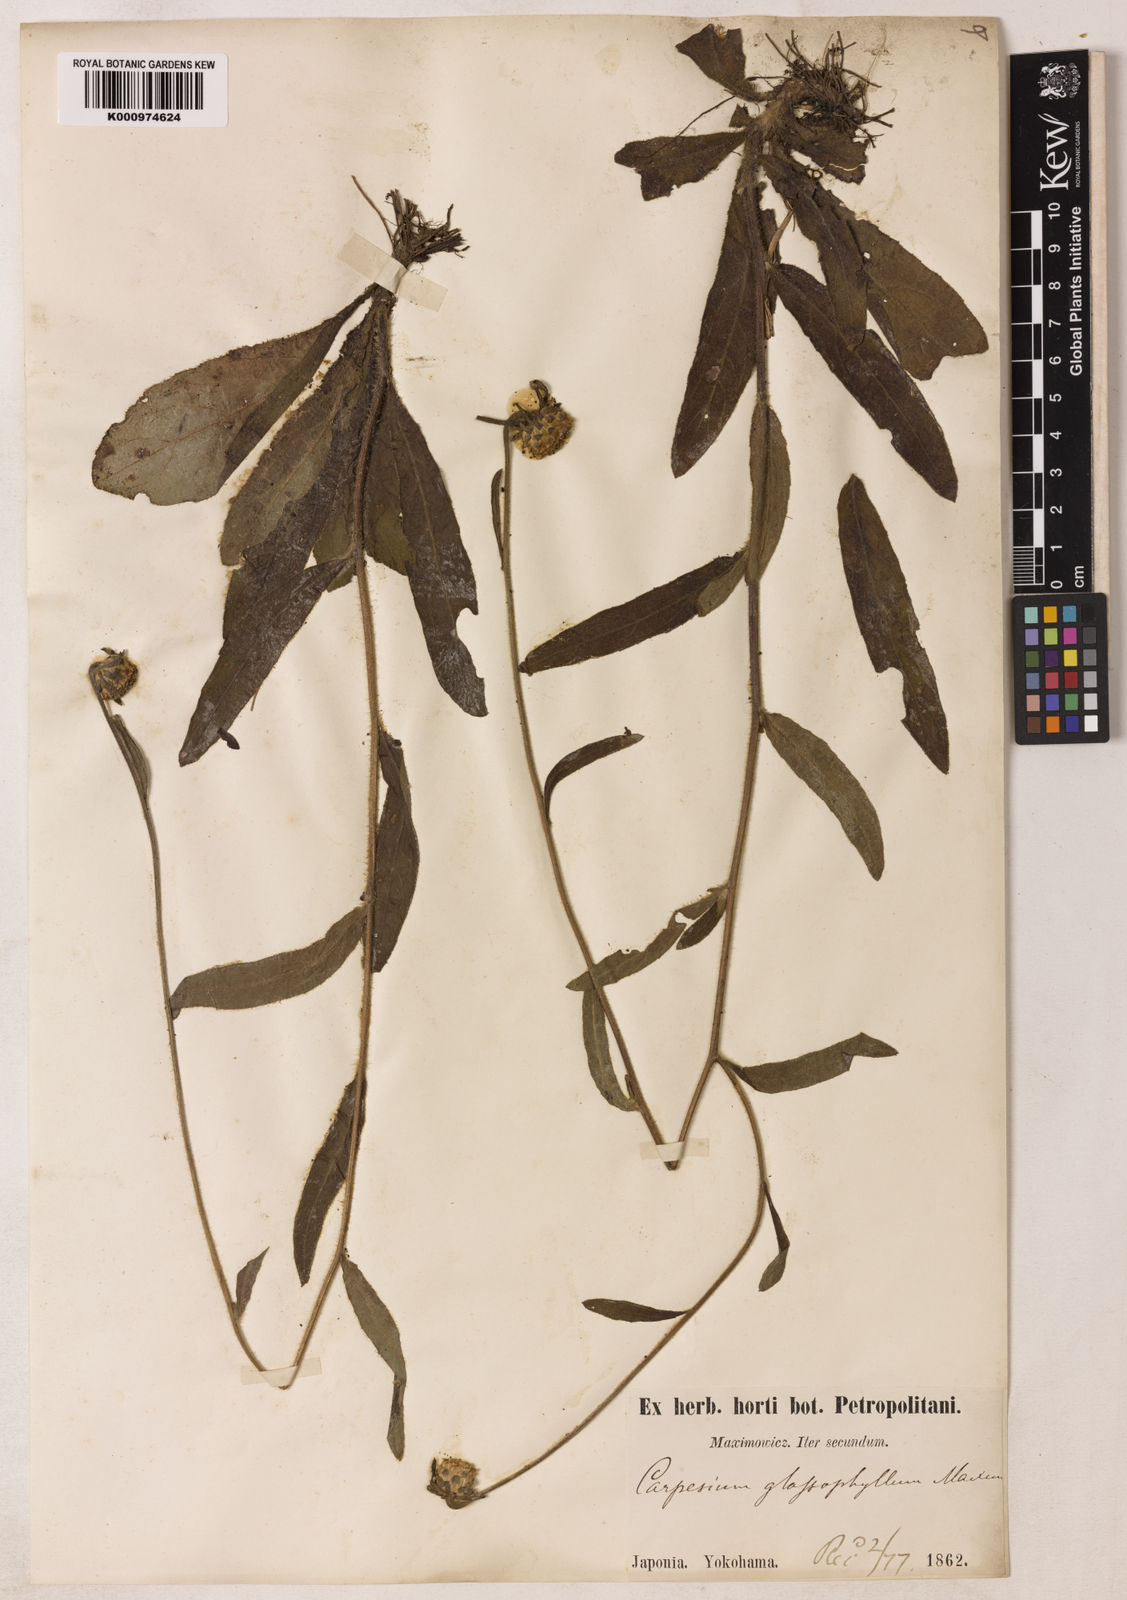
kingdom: Plantae
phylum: Tracheophyta
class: Magnoliopsida
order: Asterales
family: Asteraceae
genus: Carpesium
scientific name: Carpesium glossophyllum
